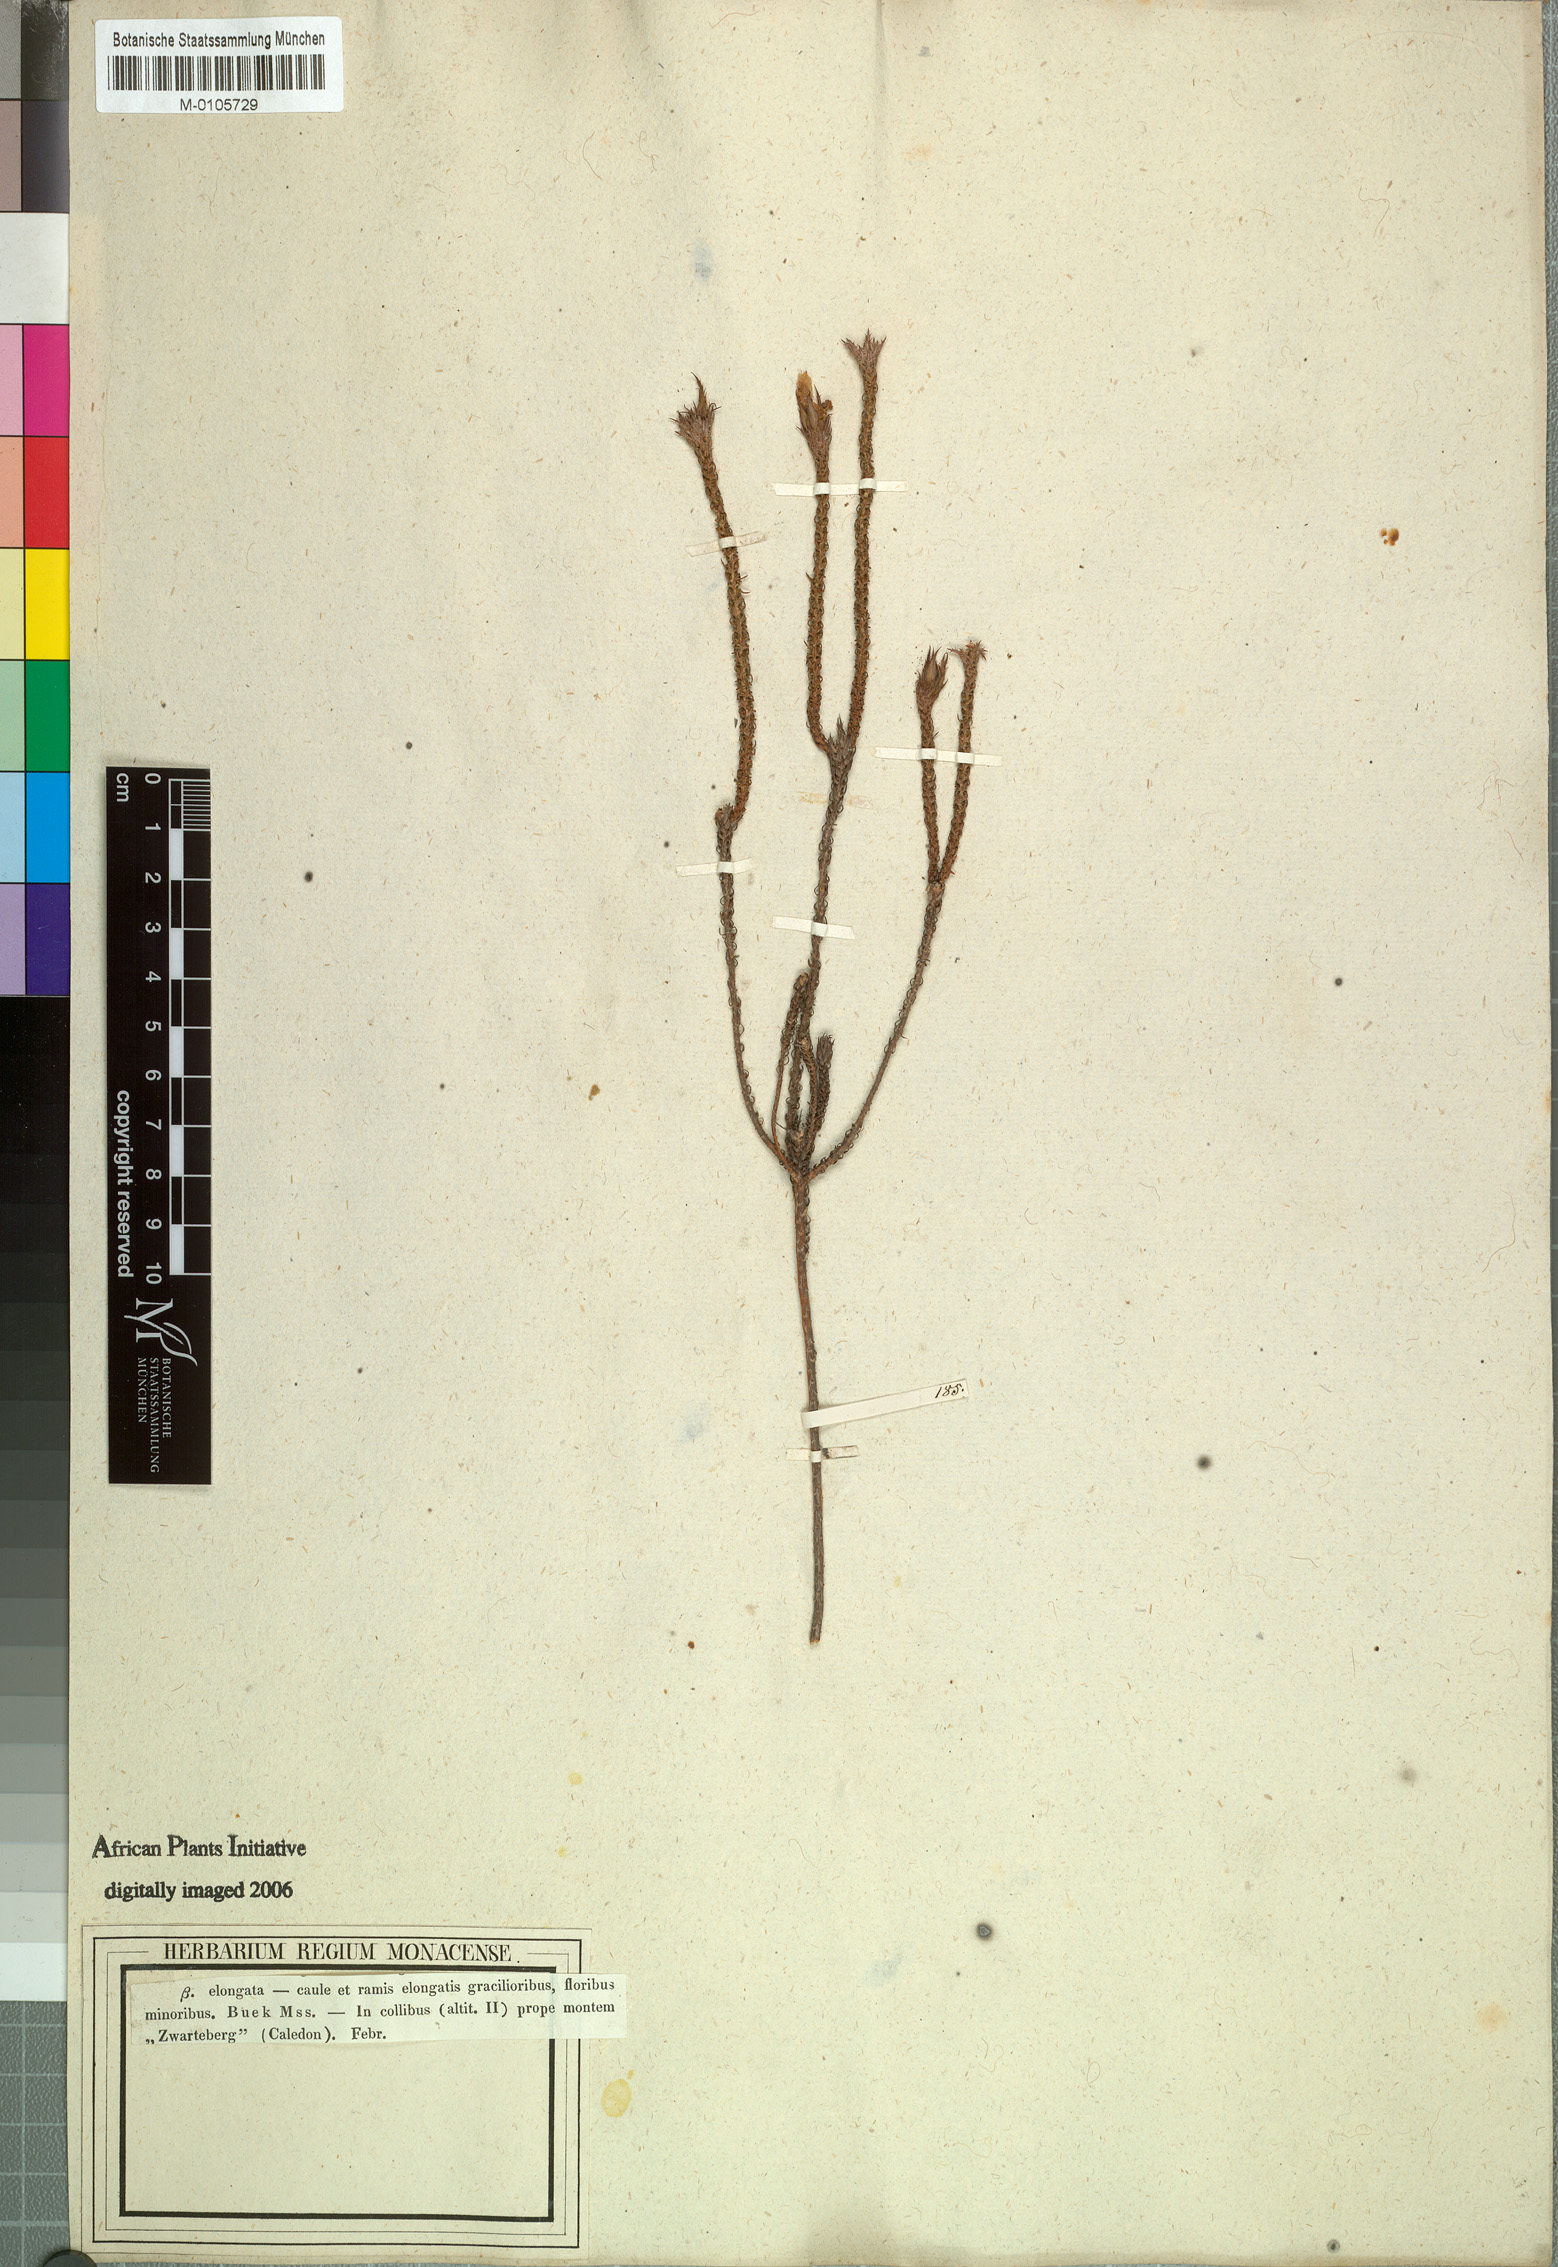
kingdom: Plantae
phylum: Tracheophyta
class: Magnoliopsida
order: Asterales
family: Campanulaceae
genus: Roella
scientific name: Roella ciliata
